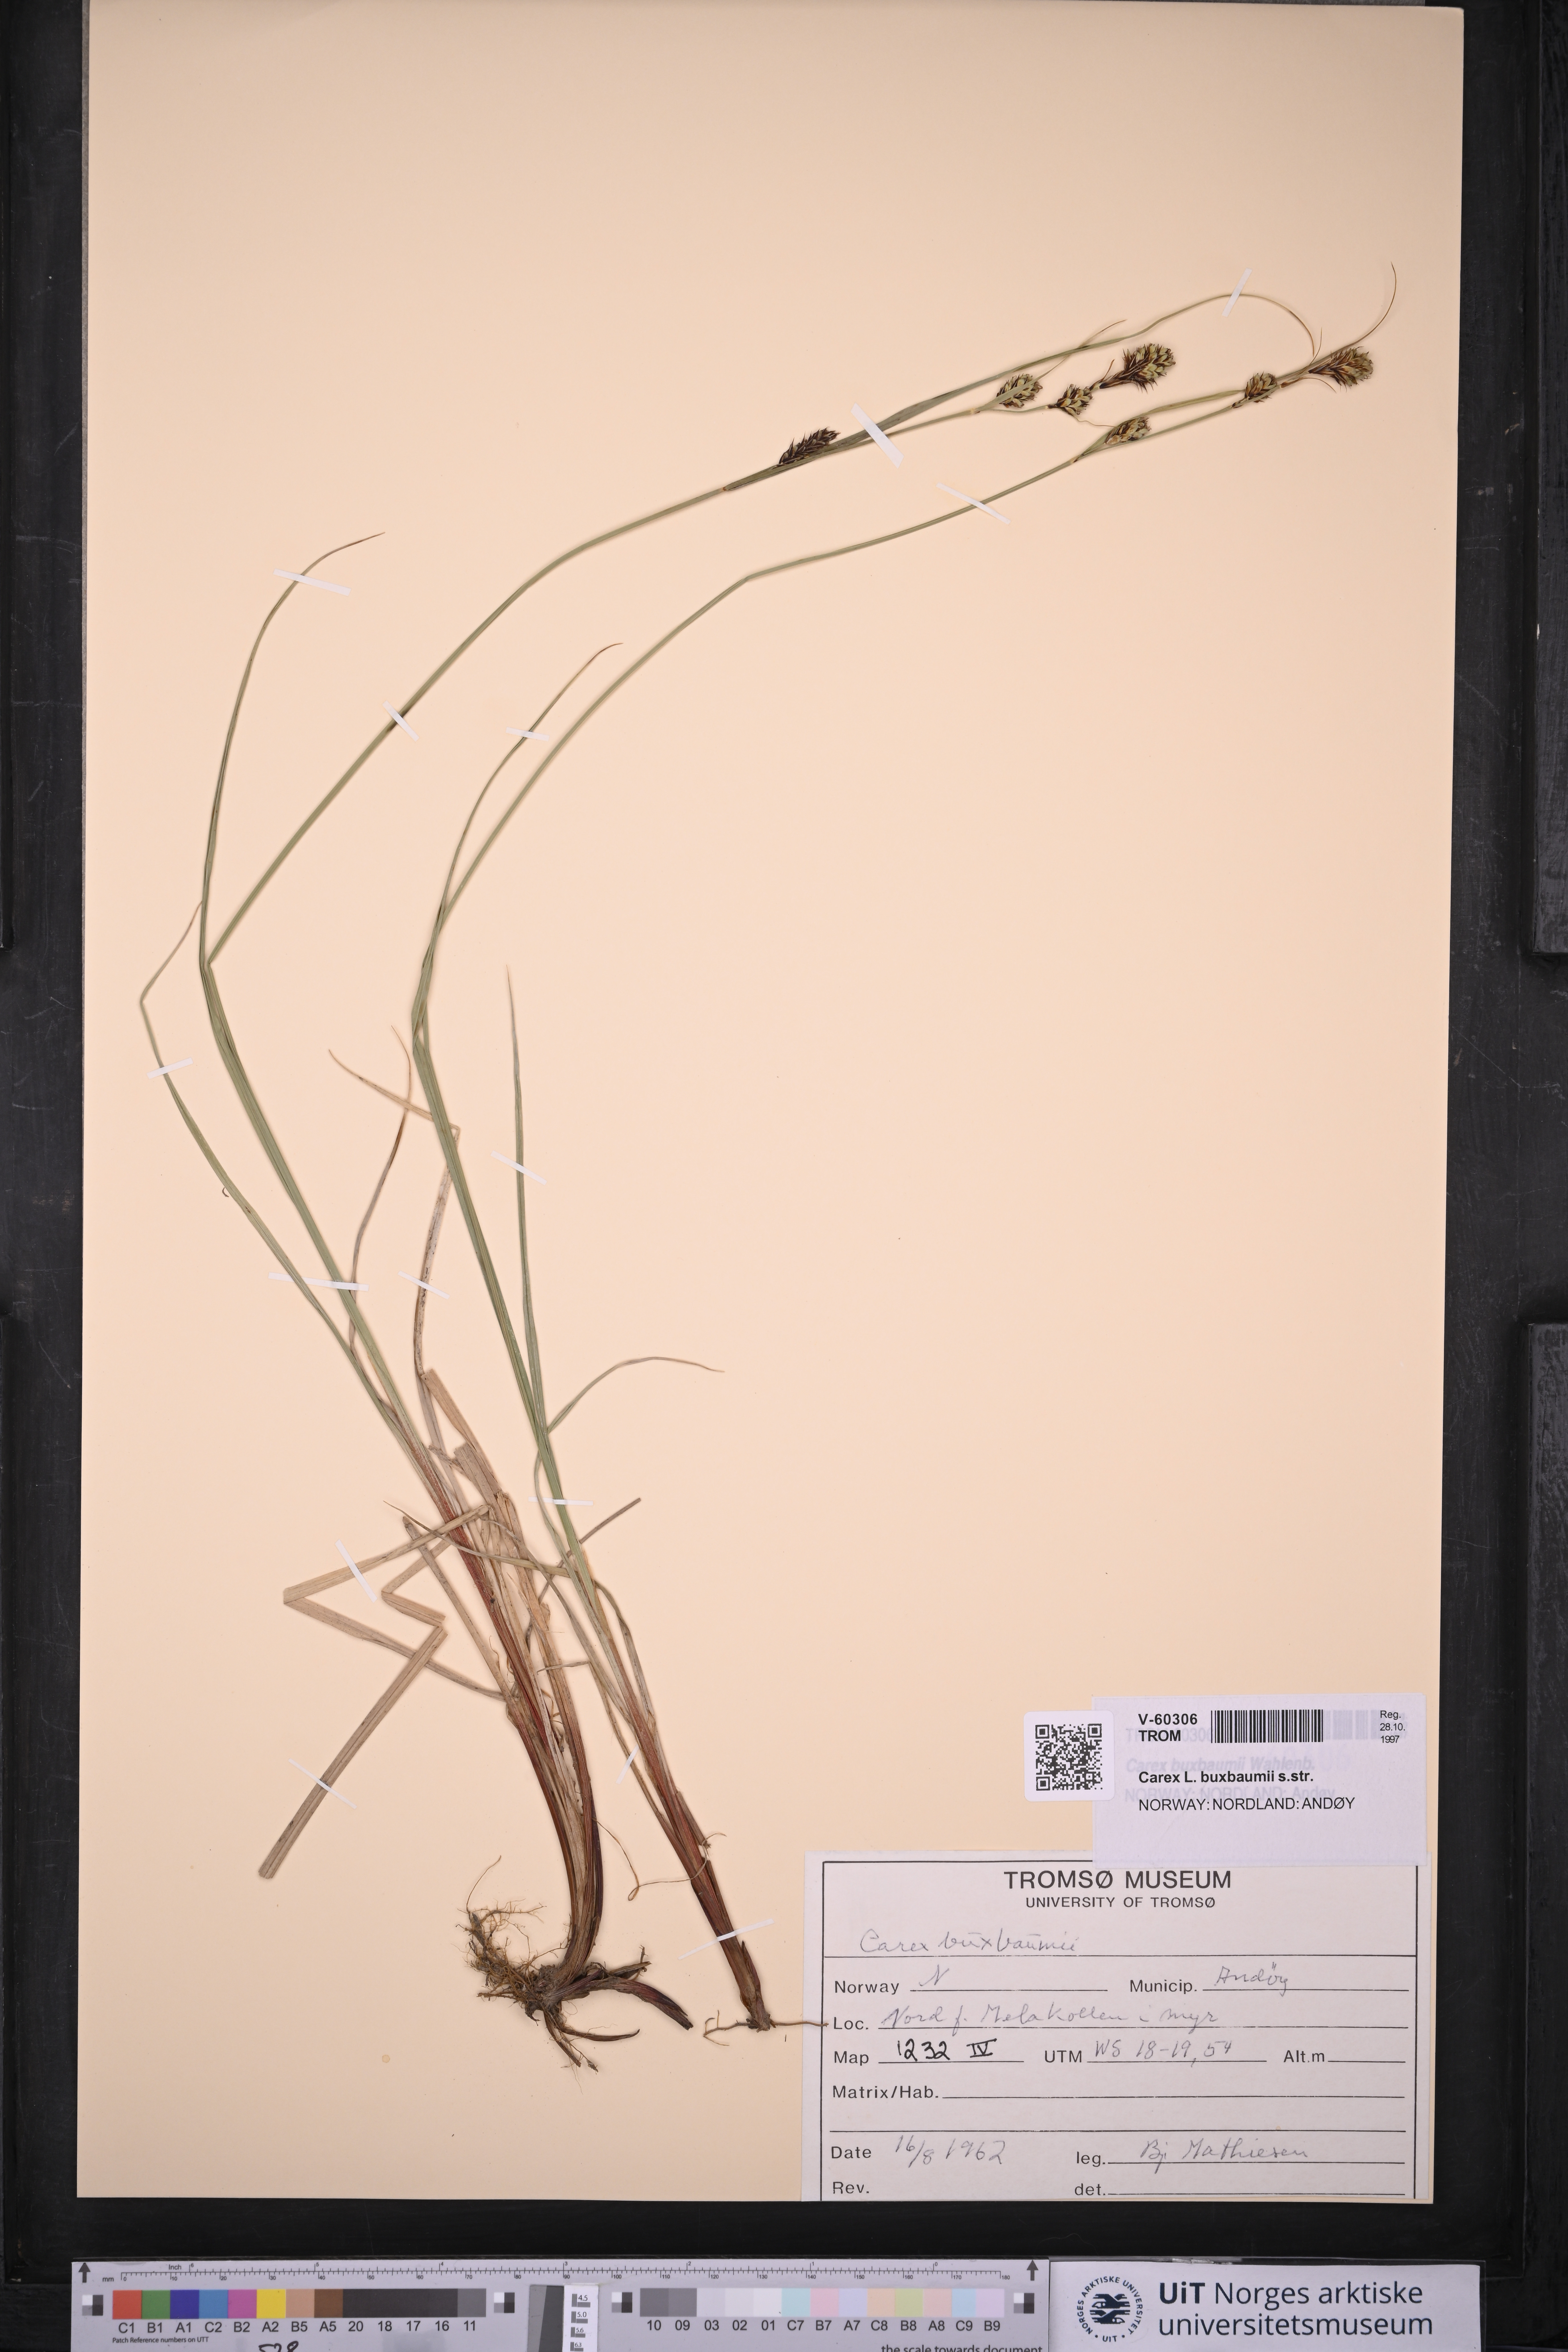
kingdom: Plantae
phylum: Tracheophyta
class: Liliopsida
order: Poales
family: Cyperaceae
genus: Carex
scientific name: Carex buxbaumii
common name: Club sedge
